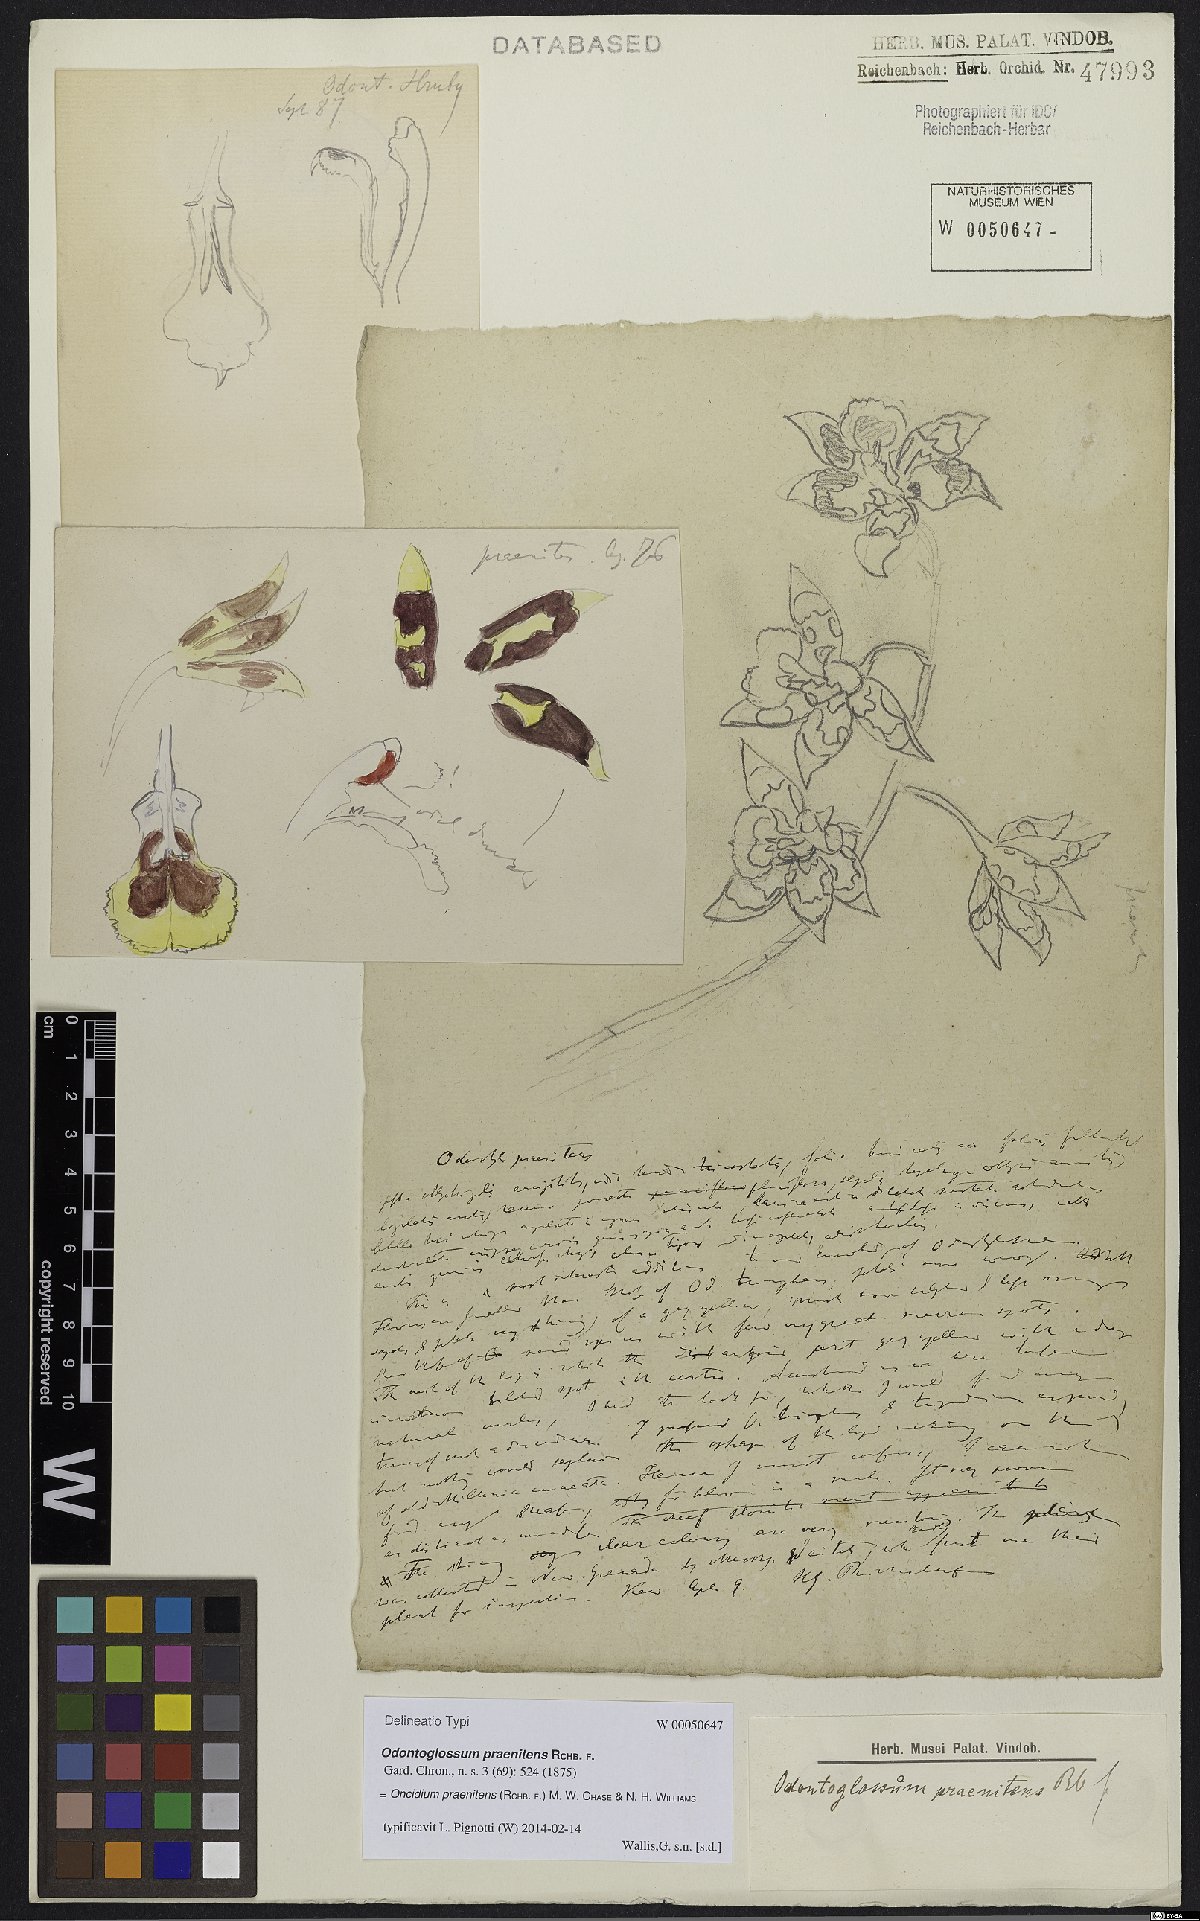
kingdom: Plantae
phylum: Tracheophyta
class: Liliopsida
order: Asparagales
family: Orchidaceae
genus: Oncidium
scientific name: Oncidium praenitens
